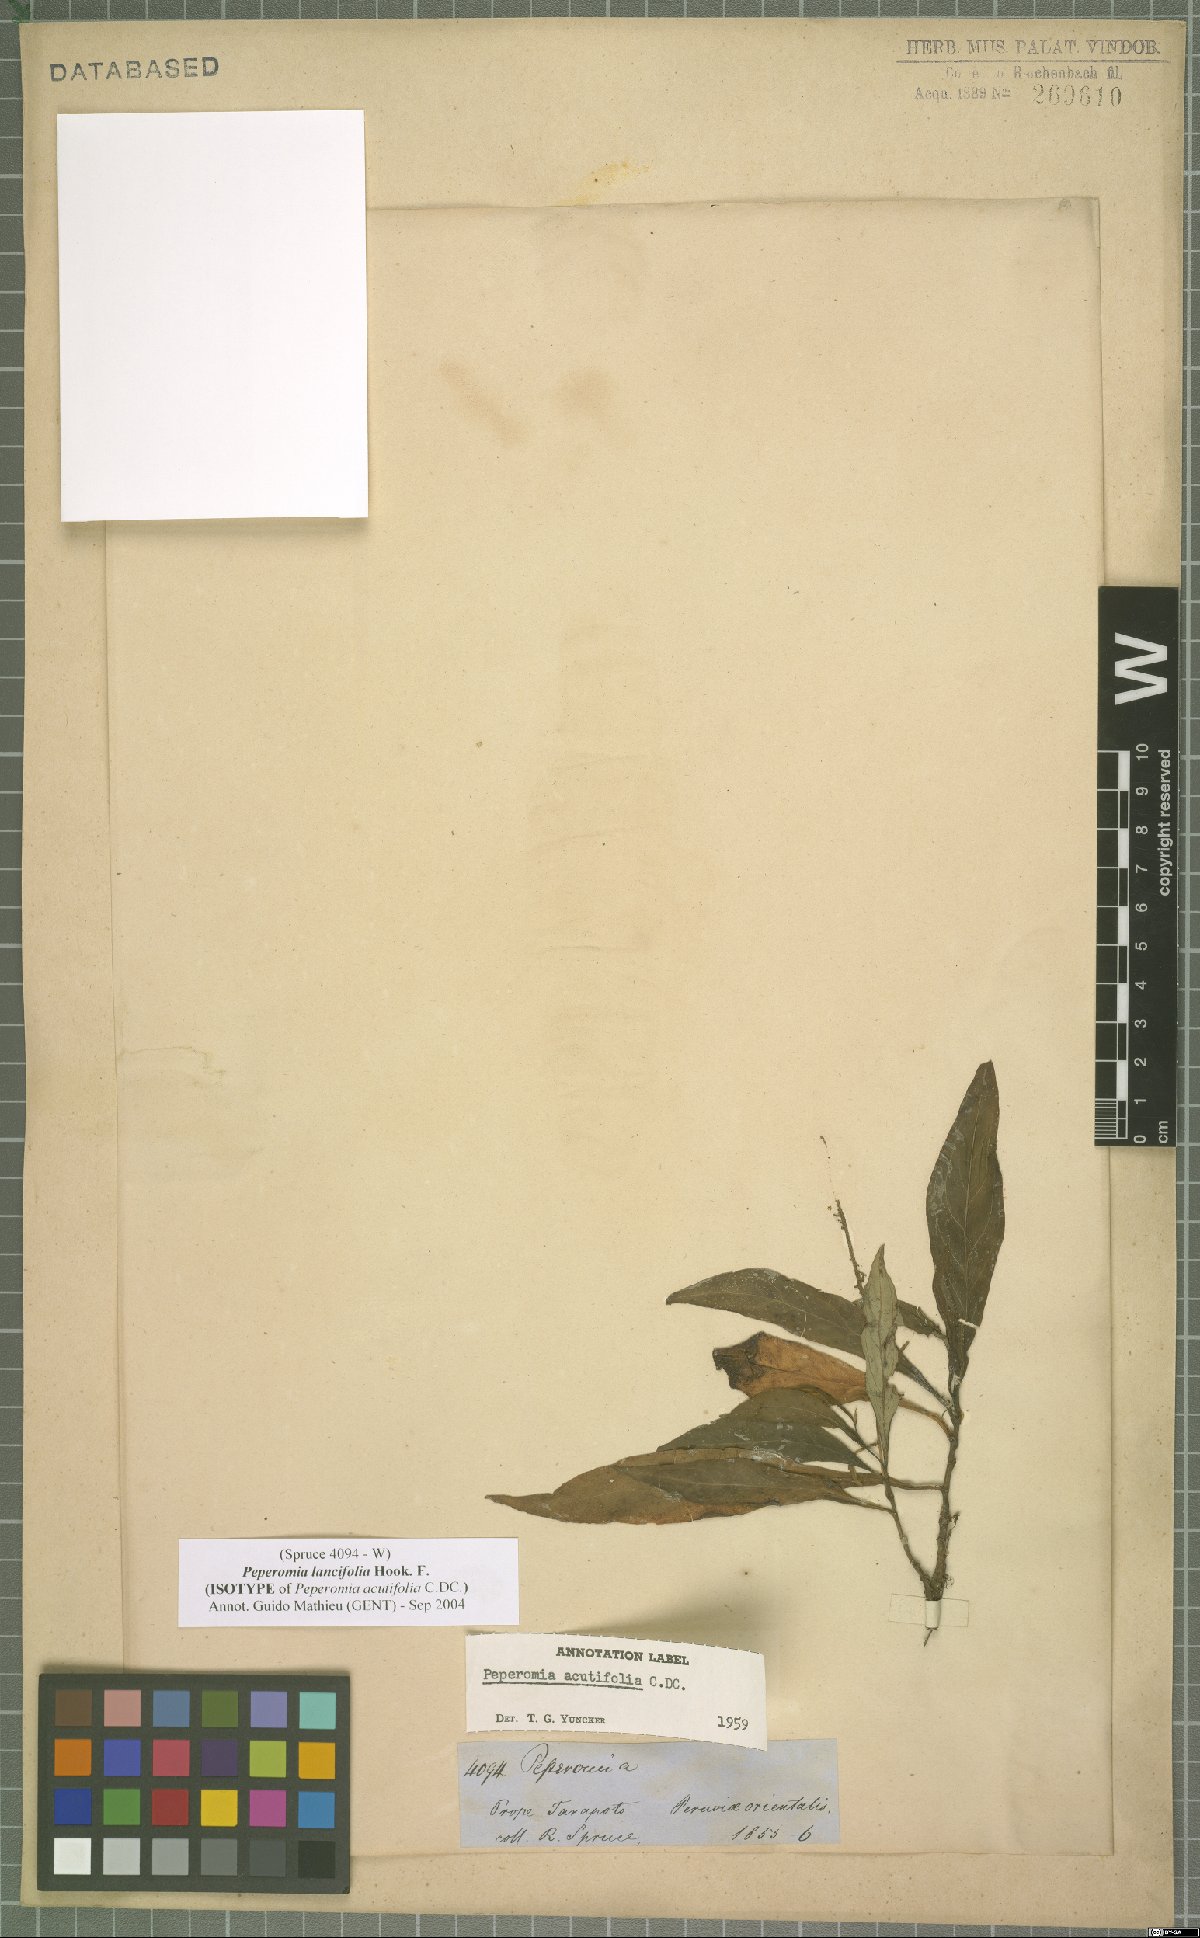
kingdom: Plantae
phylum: Tracheophyta
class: Magnoliopsida
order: Piperales
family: Piperaceae
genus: Peperomia
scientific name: Peperomia lancifolia
